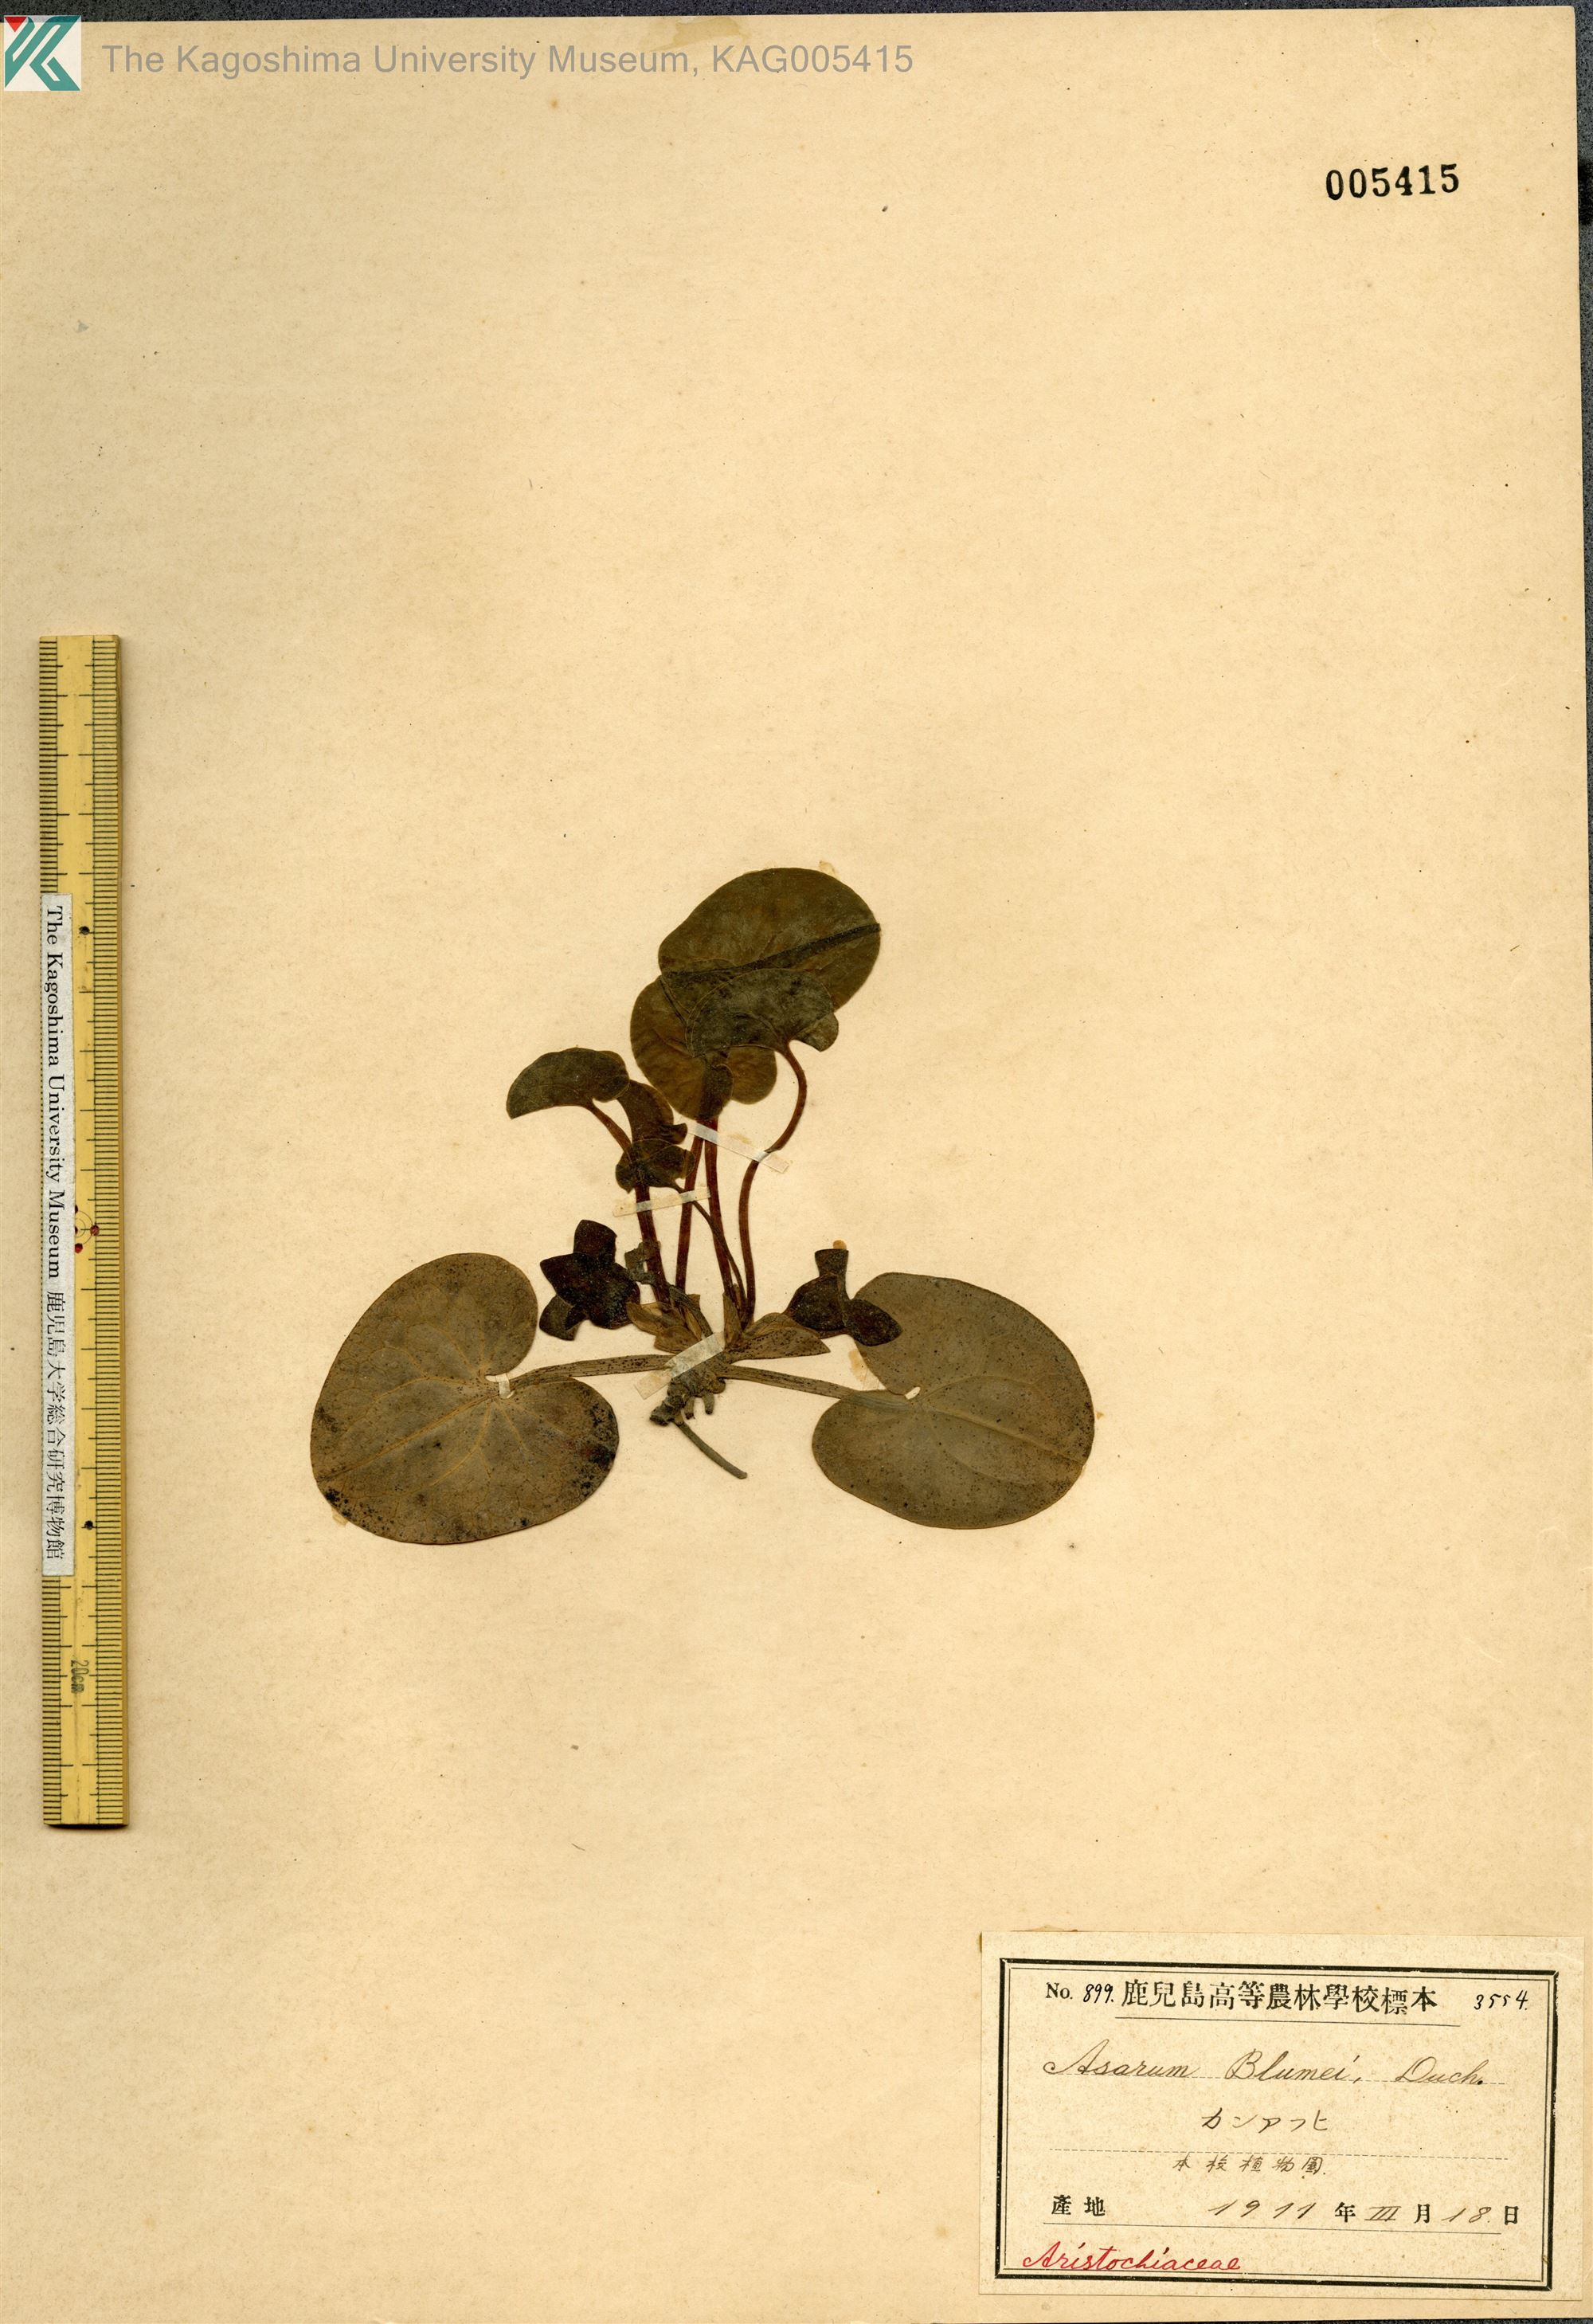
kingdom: Plantae
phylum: Tracheophyta
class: Magnoliopsida
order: Piperales
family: Aristolochiaceae
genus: Asarum
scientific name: Asarum blumei
